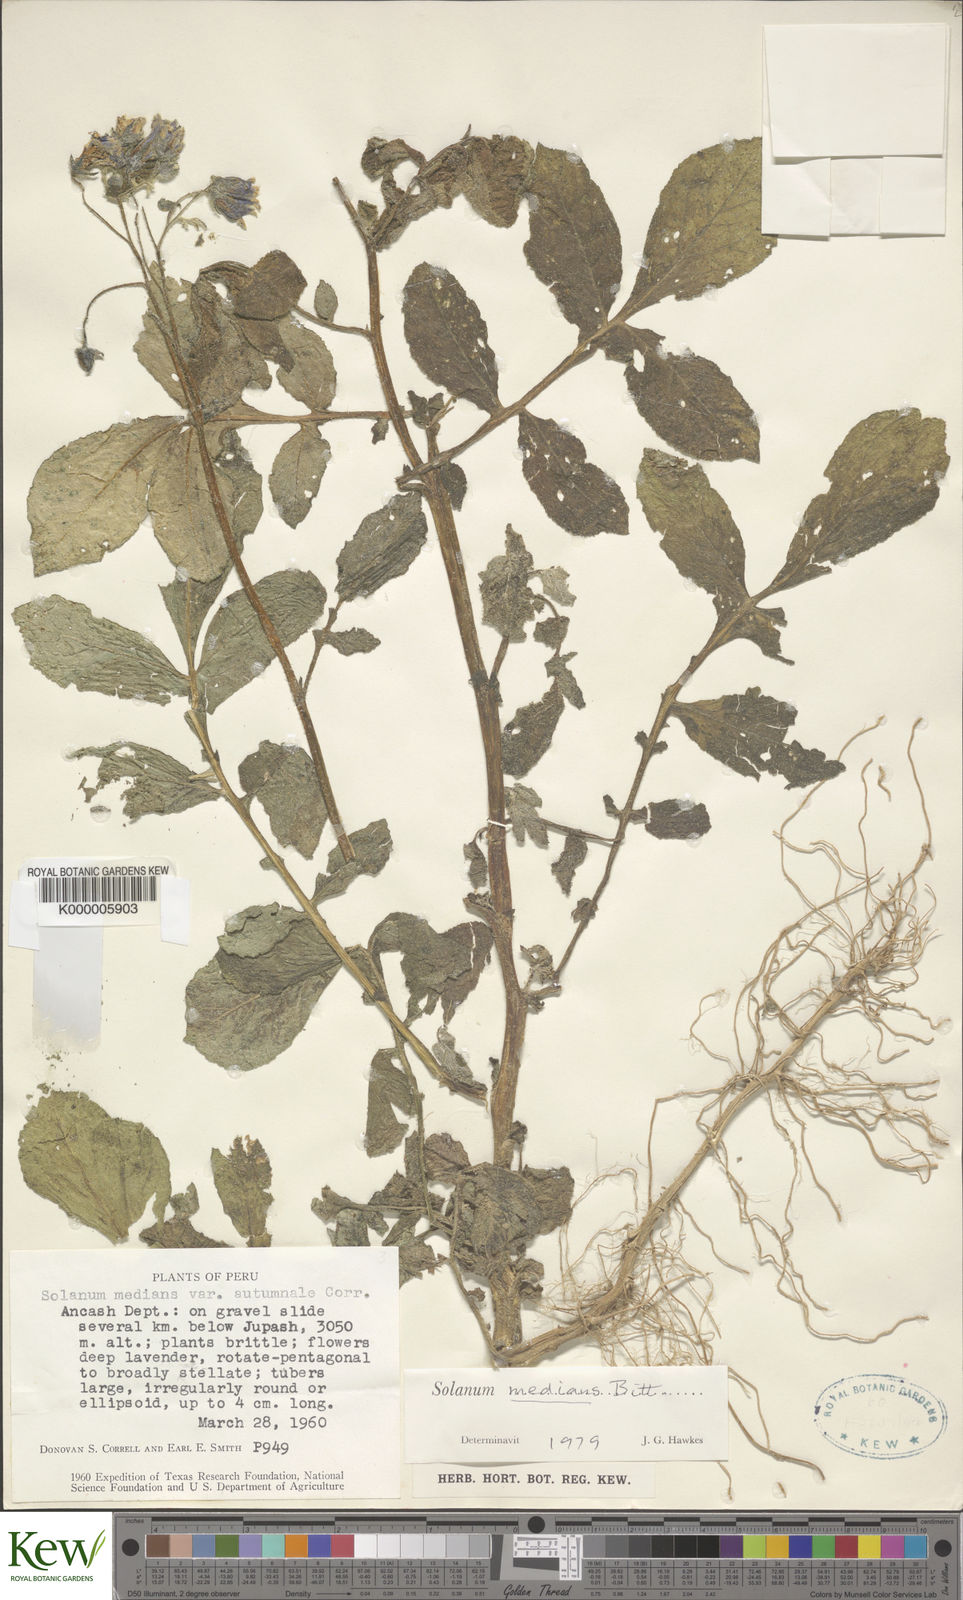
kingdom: Plantae
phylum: Tracheophyta
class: Magnoliopsida
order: Solanales
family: Solanaceae
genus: Solanum
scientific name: Solanum medians
